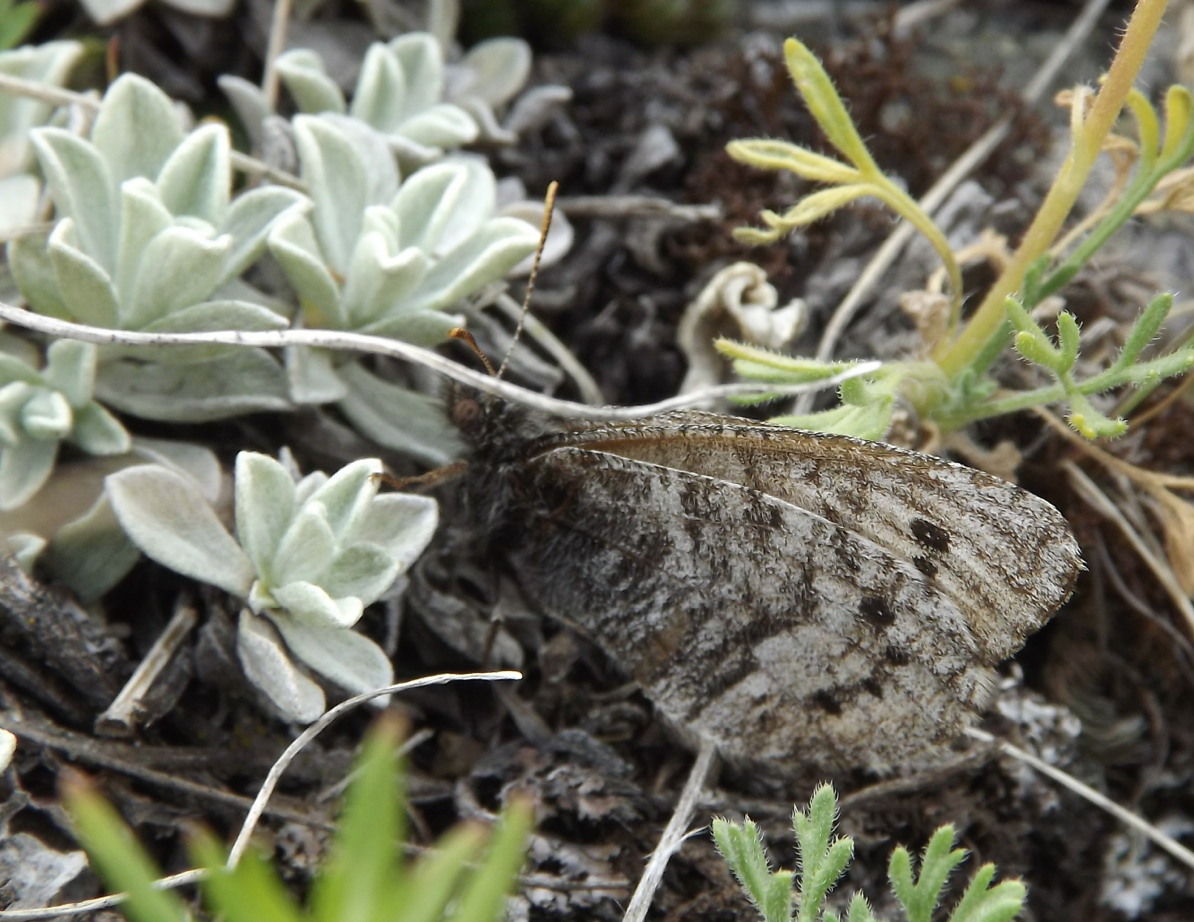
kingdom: Animalia
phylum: Arthropoda
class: Insecta
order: Lepidoptera
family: Nymphalidae
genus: Oeneis
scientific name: Oeneis uhleri
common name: Uhler's Arctic
